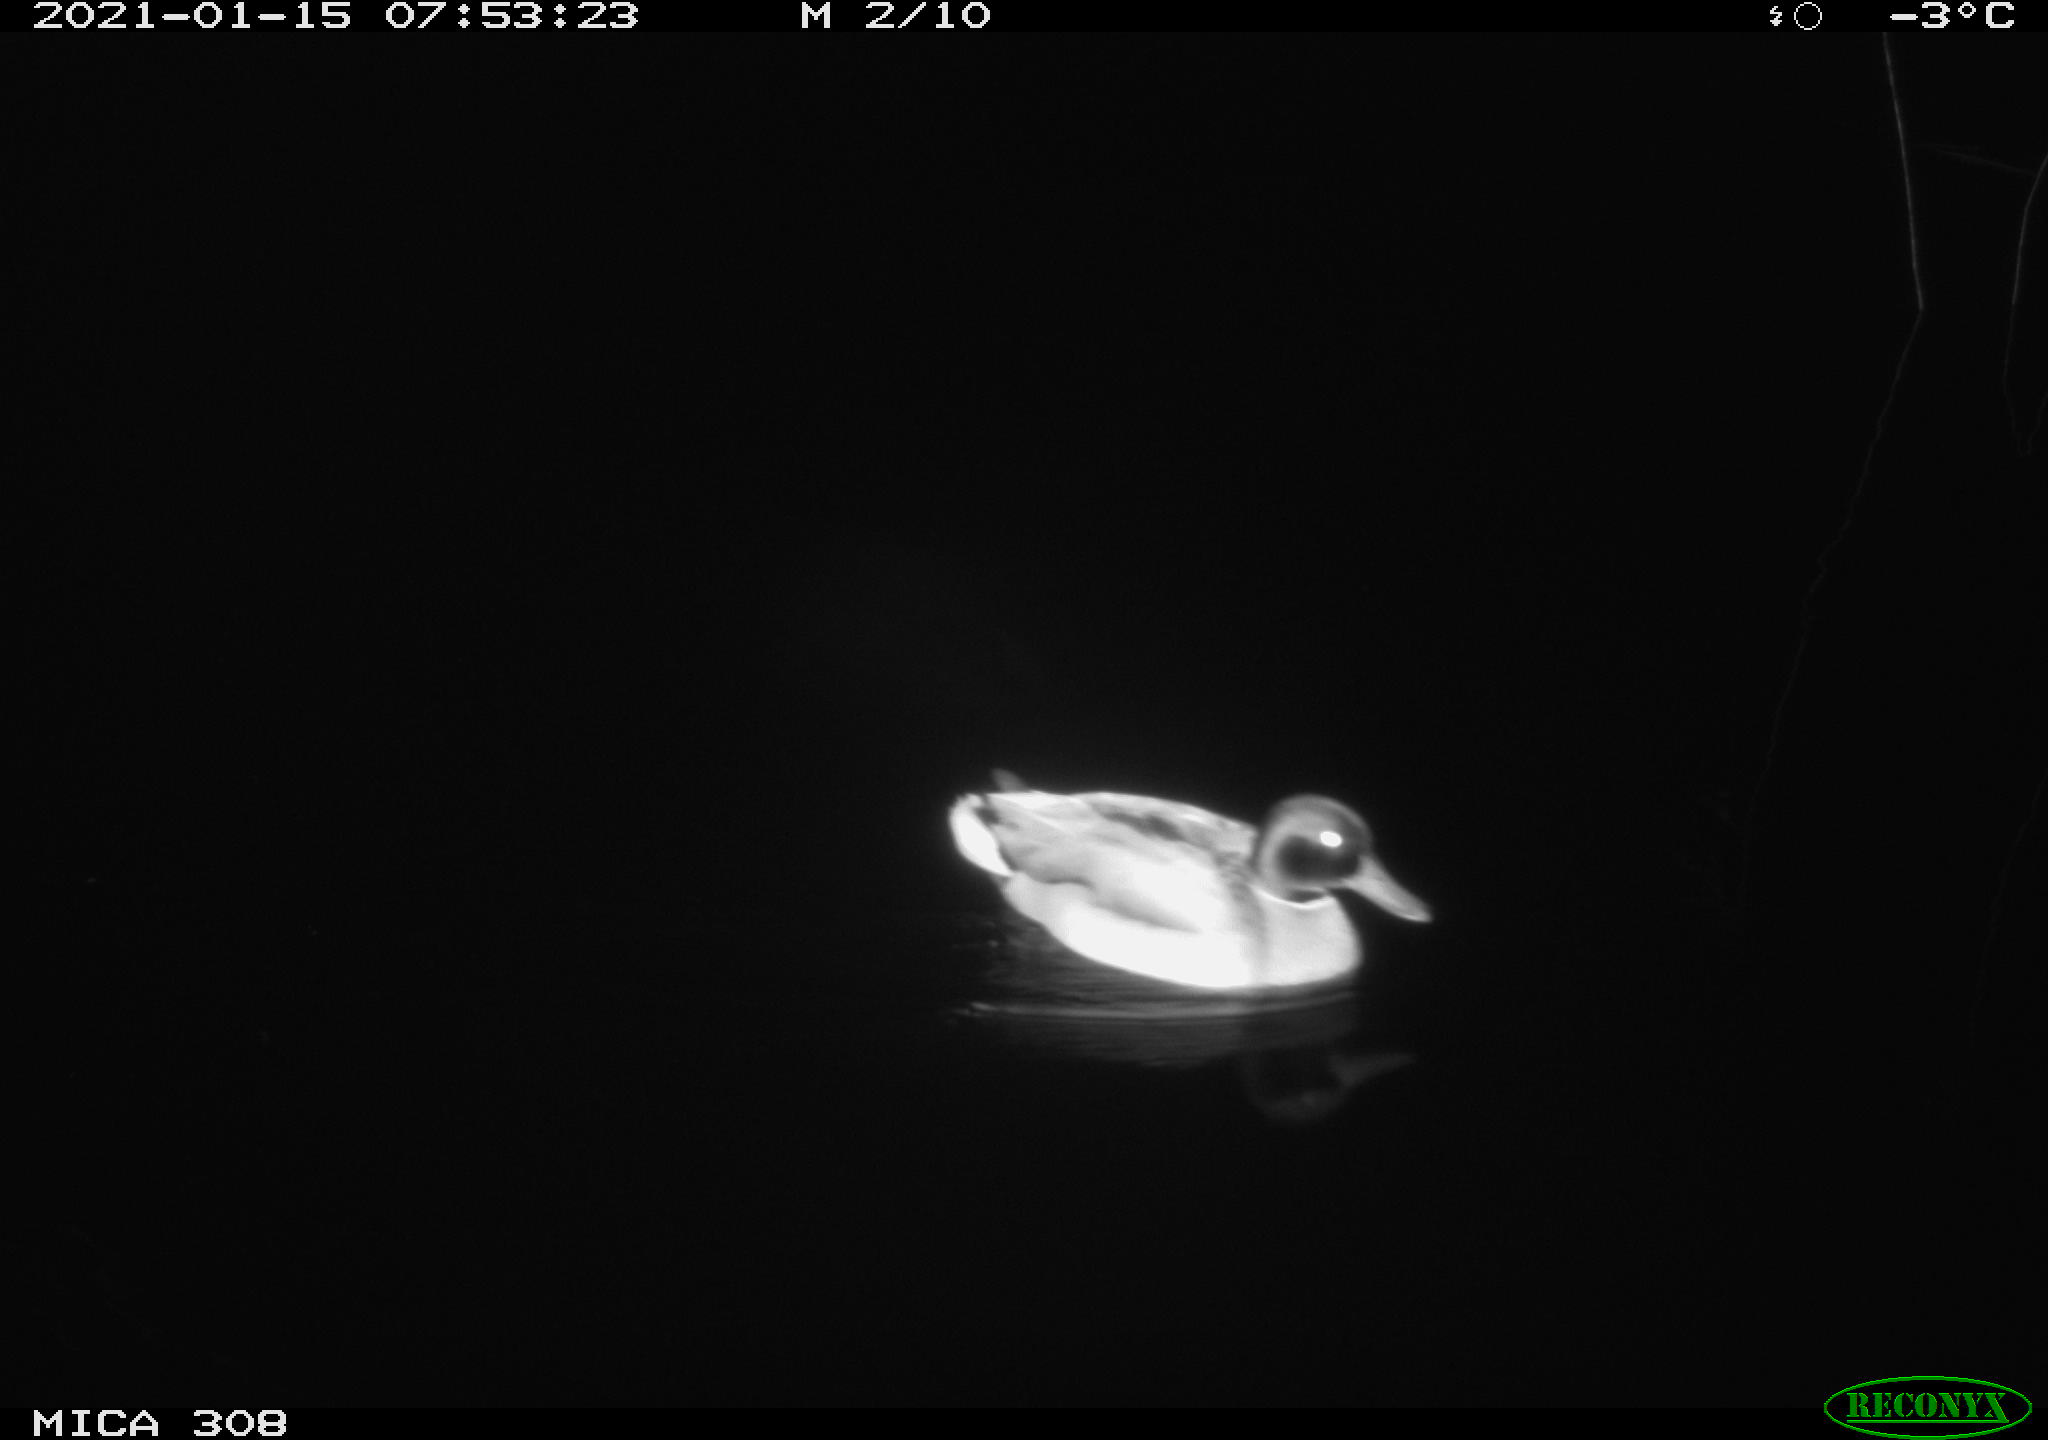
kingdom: Animalia
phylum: Chordata
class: Aves
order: Anseriformes
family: Anatidae
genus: Anas
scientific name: Anas platyrhynchos
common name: Mallard
